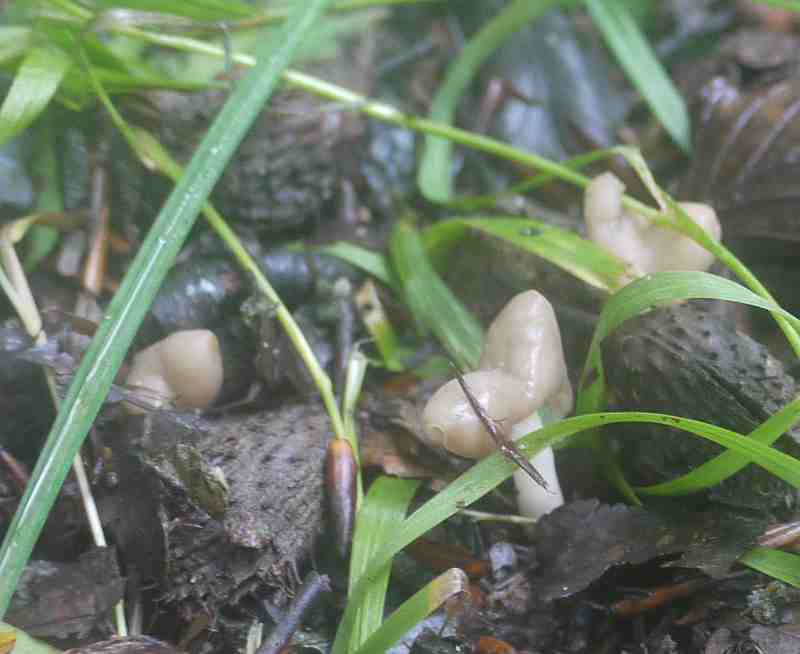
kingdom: Fungi
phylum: Ascomycota
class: Pezizomycetes
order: Pezizales
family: Helvellaceae
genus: Helvella
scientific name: Helvella elastica
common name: elastik-foldhat
